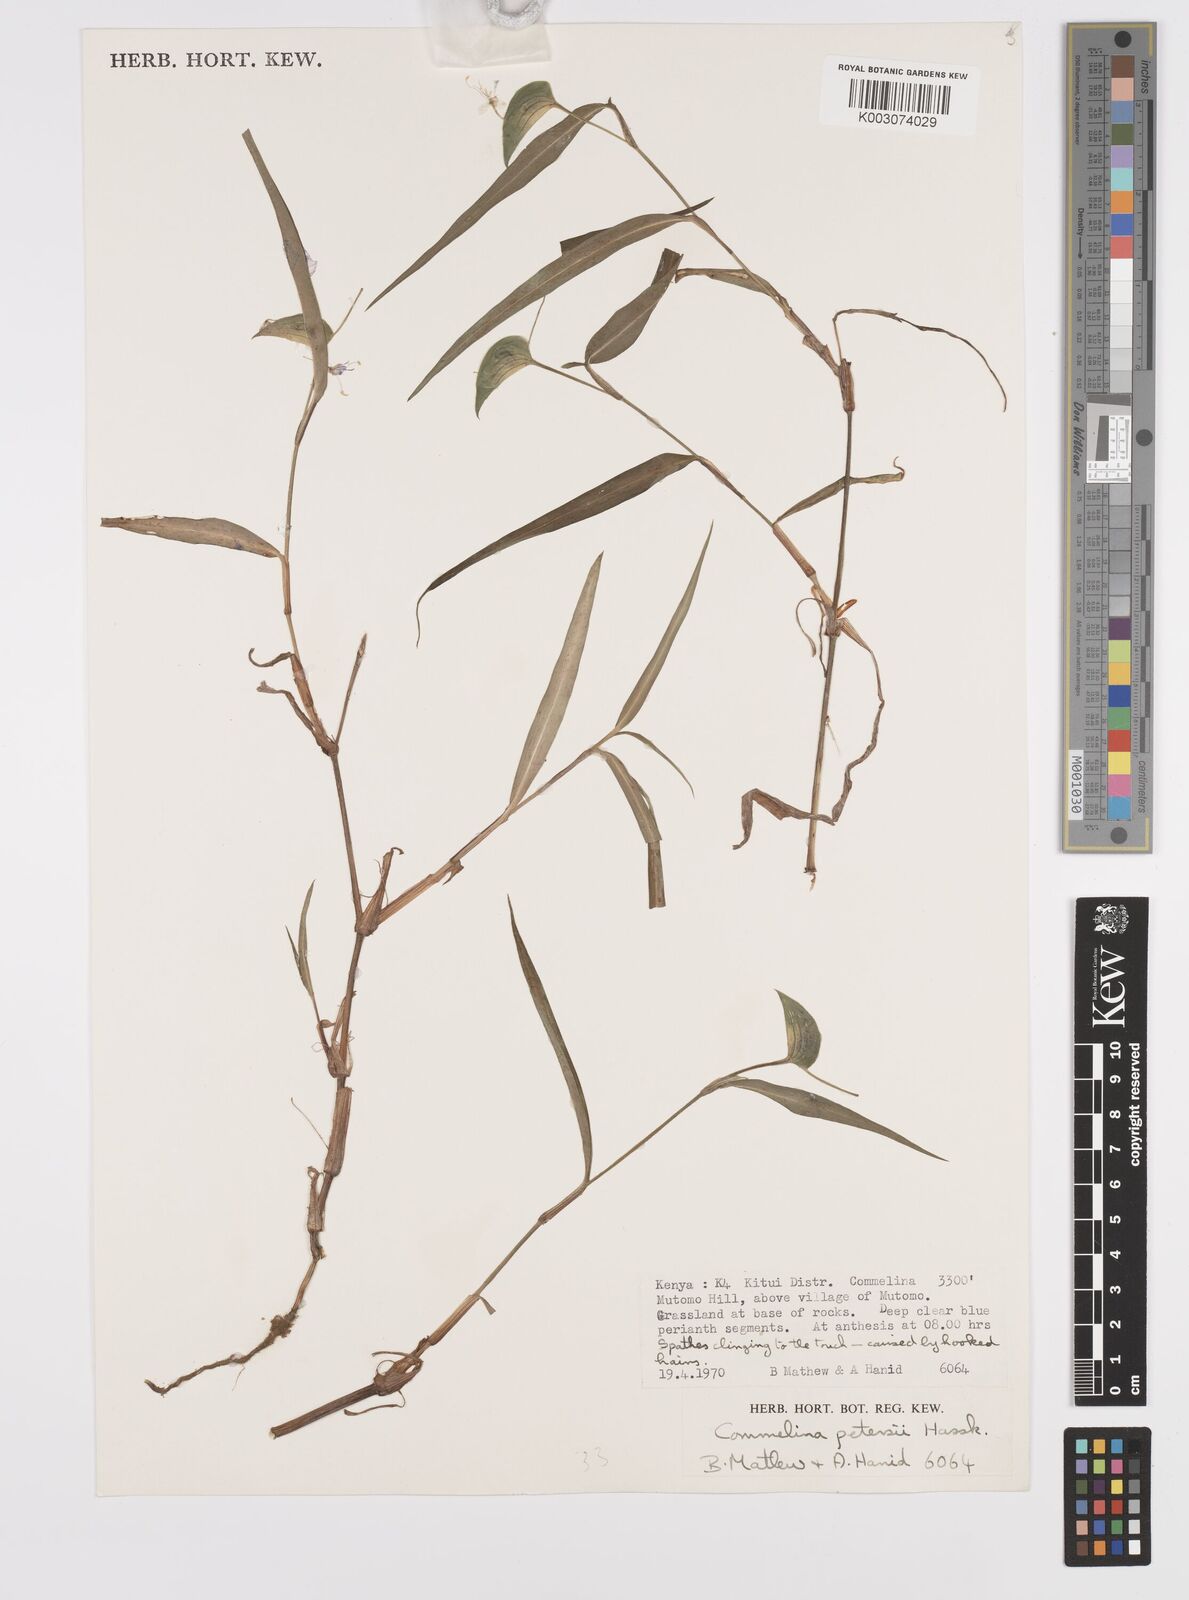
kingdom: Plantae
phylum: Tracheophyta
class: Liliopsida
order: Commelinales
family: Commelinaceae
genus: Commelina
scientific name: Commelina petersii
